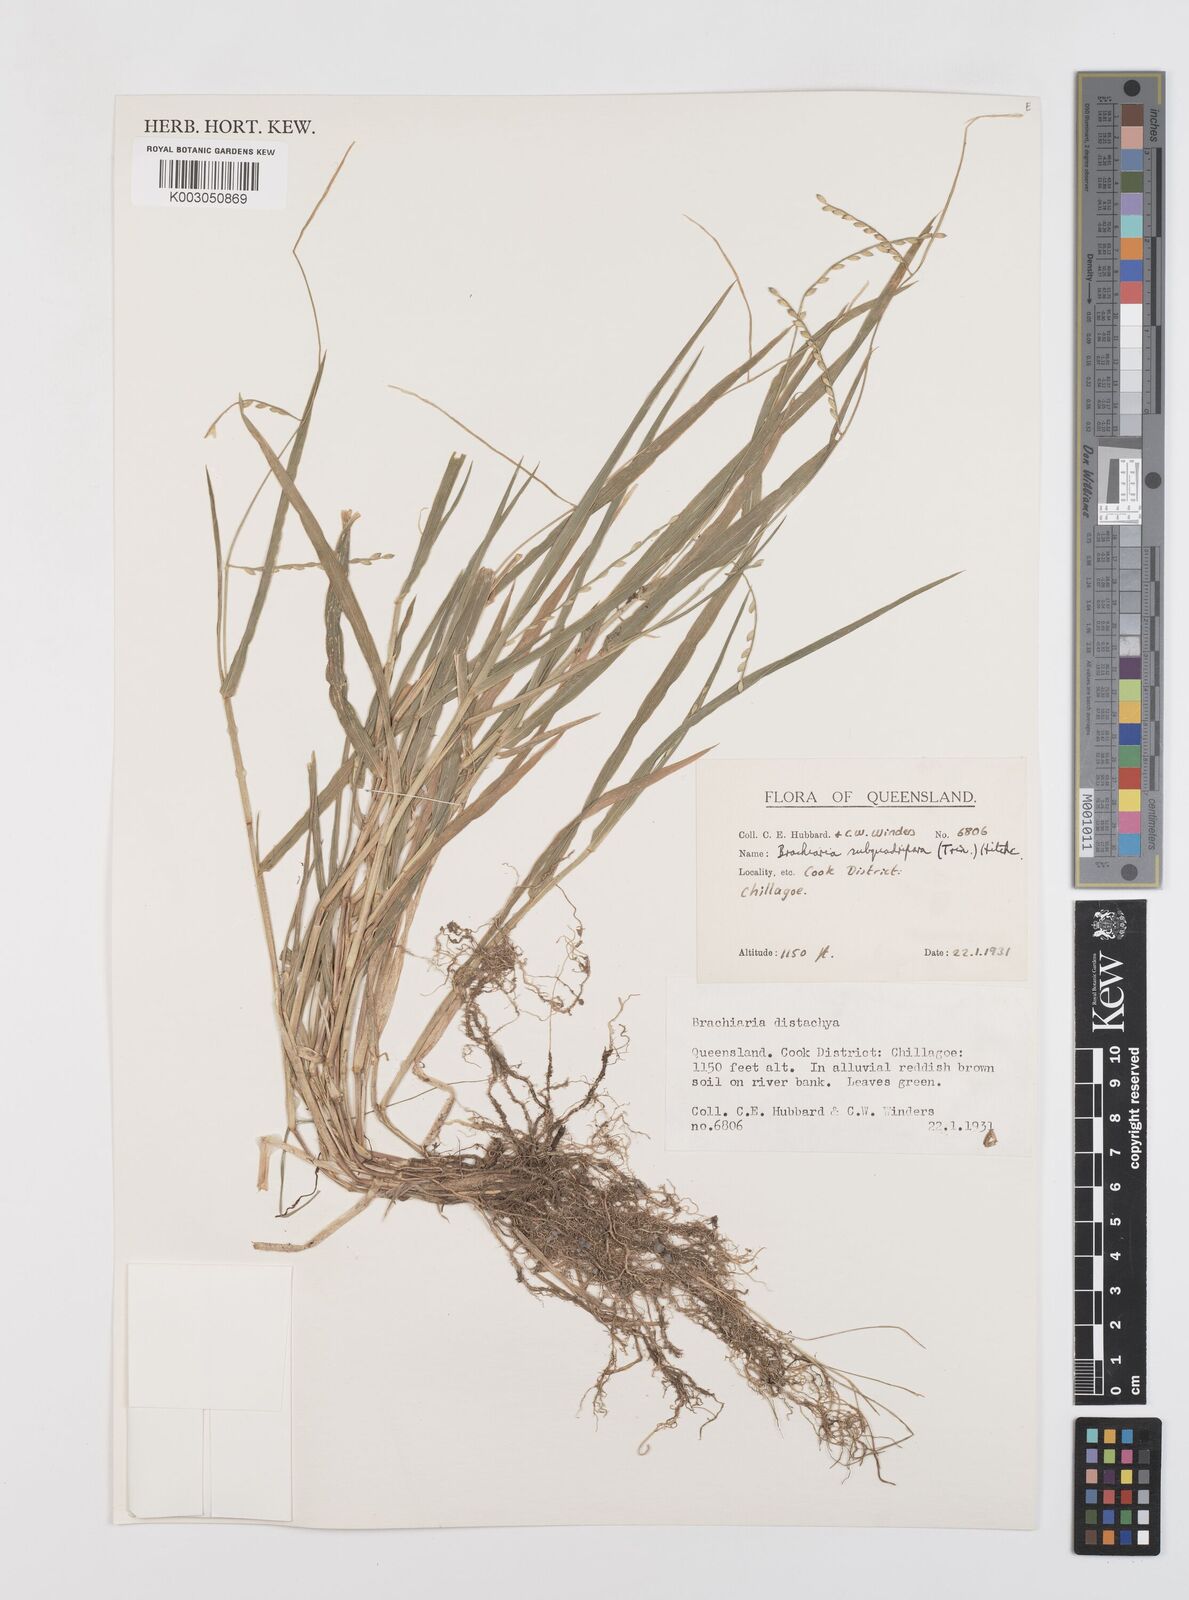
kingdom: Plantae
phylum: Tracheophyta
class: Liliopsida
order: Poales
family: Poaceae
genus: Urochloa
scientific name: Urochloa subquadripara
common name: Armgrass millet
